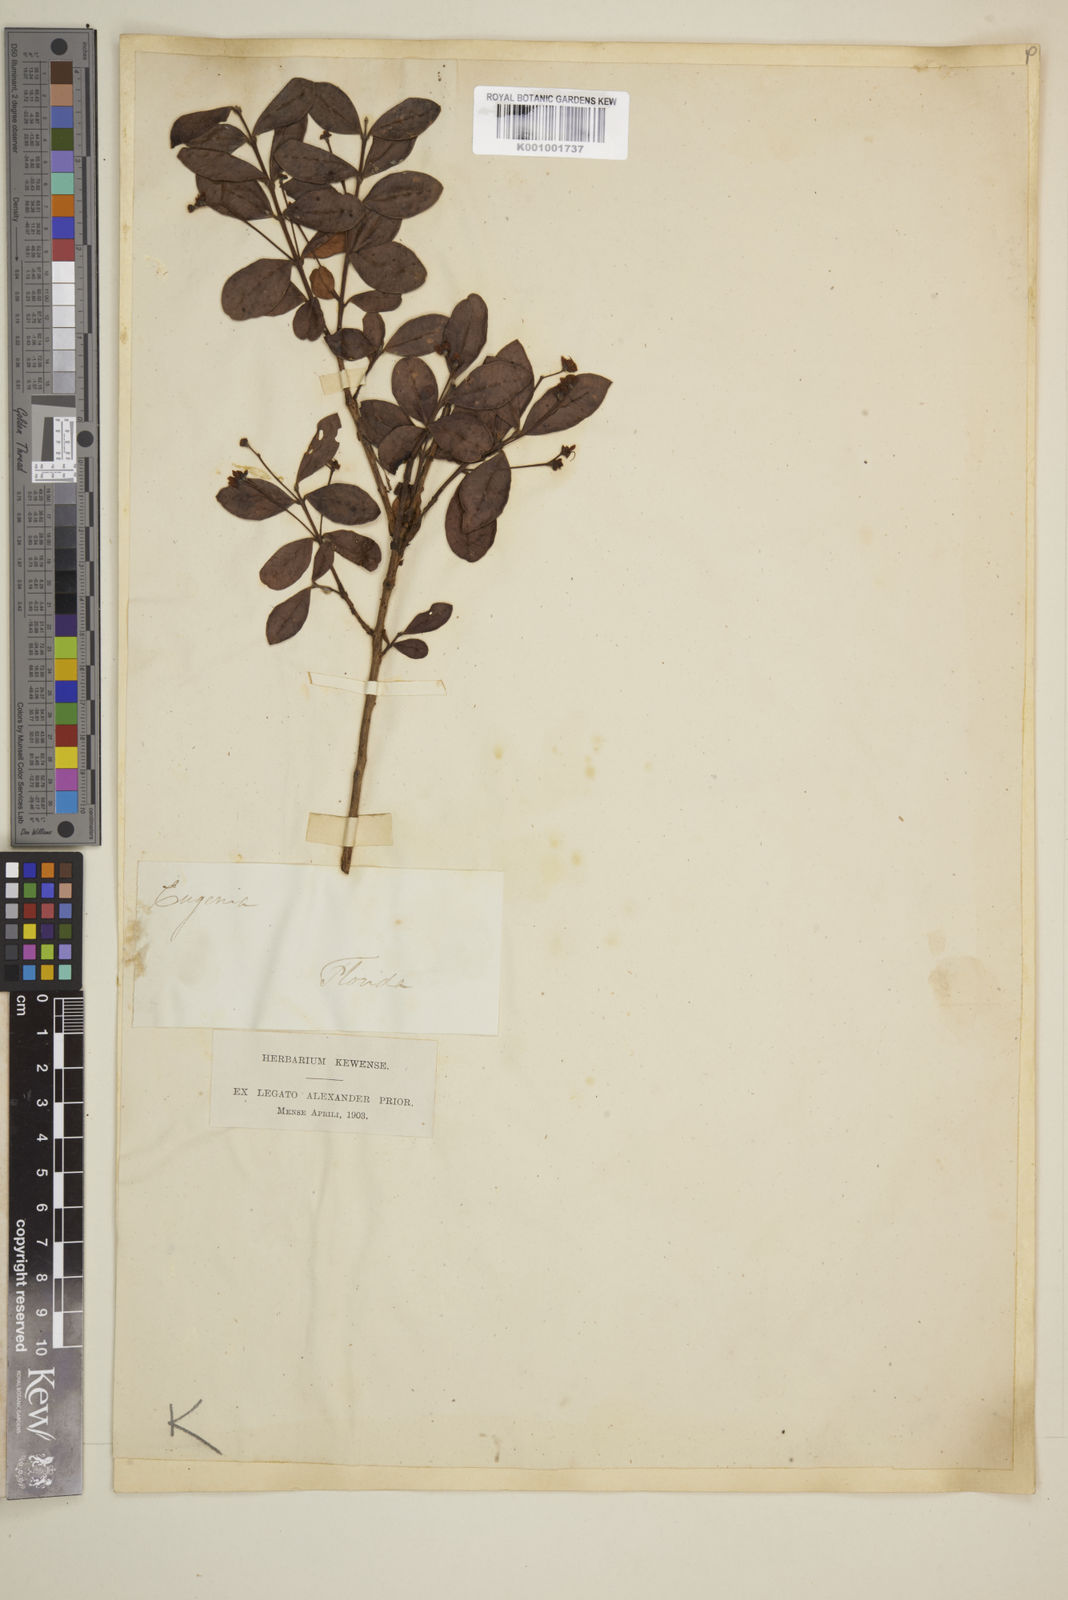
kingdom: Plantae
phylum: Tracheophyta
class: Magnoliopsida
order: Myrtales
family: Myrtaceae
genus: Eugenia
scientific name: Eugenia
